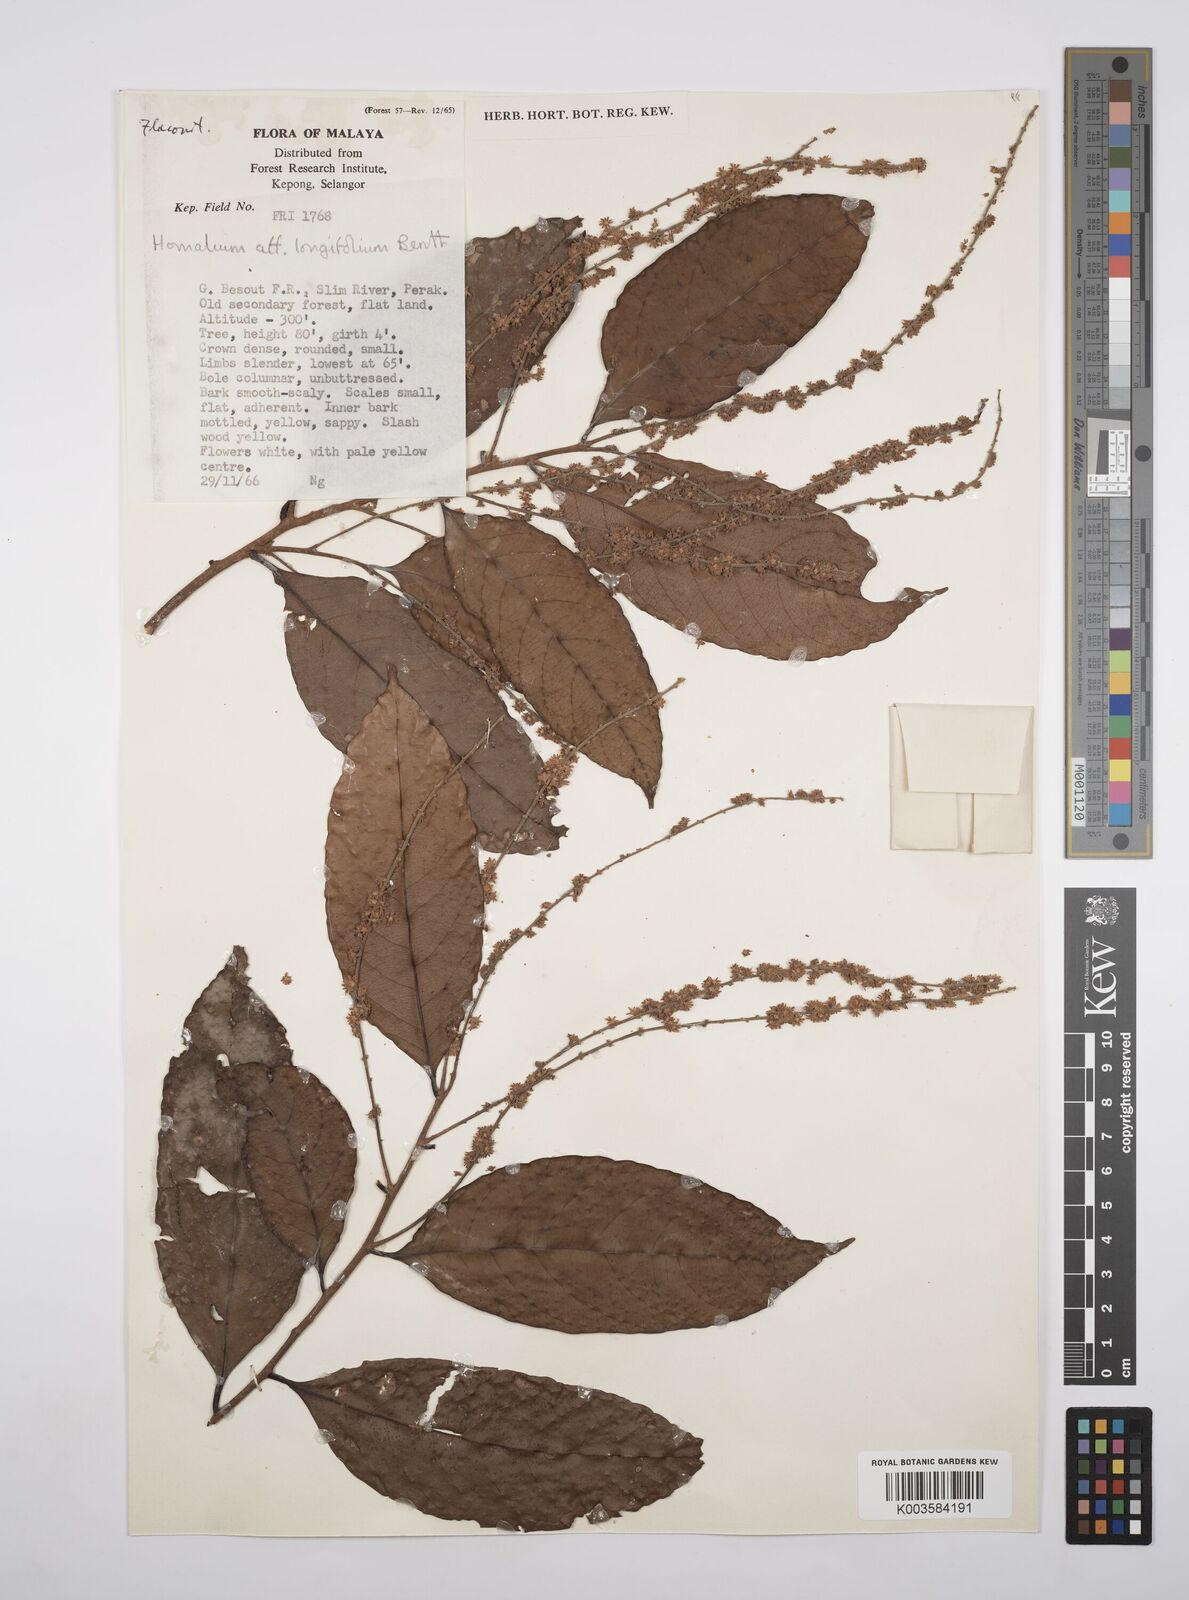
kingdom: Plantae
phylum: Tracheophyta
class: Magnoliopsida
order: Malpighiales
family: Salicaceae
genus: Homalium
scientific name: Homalium longifolium
